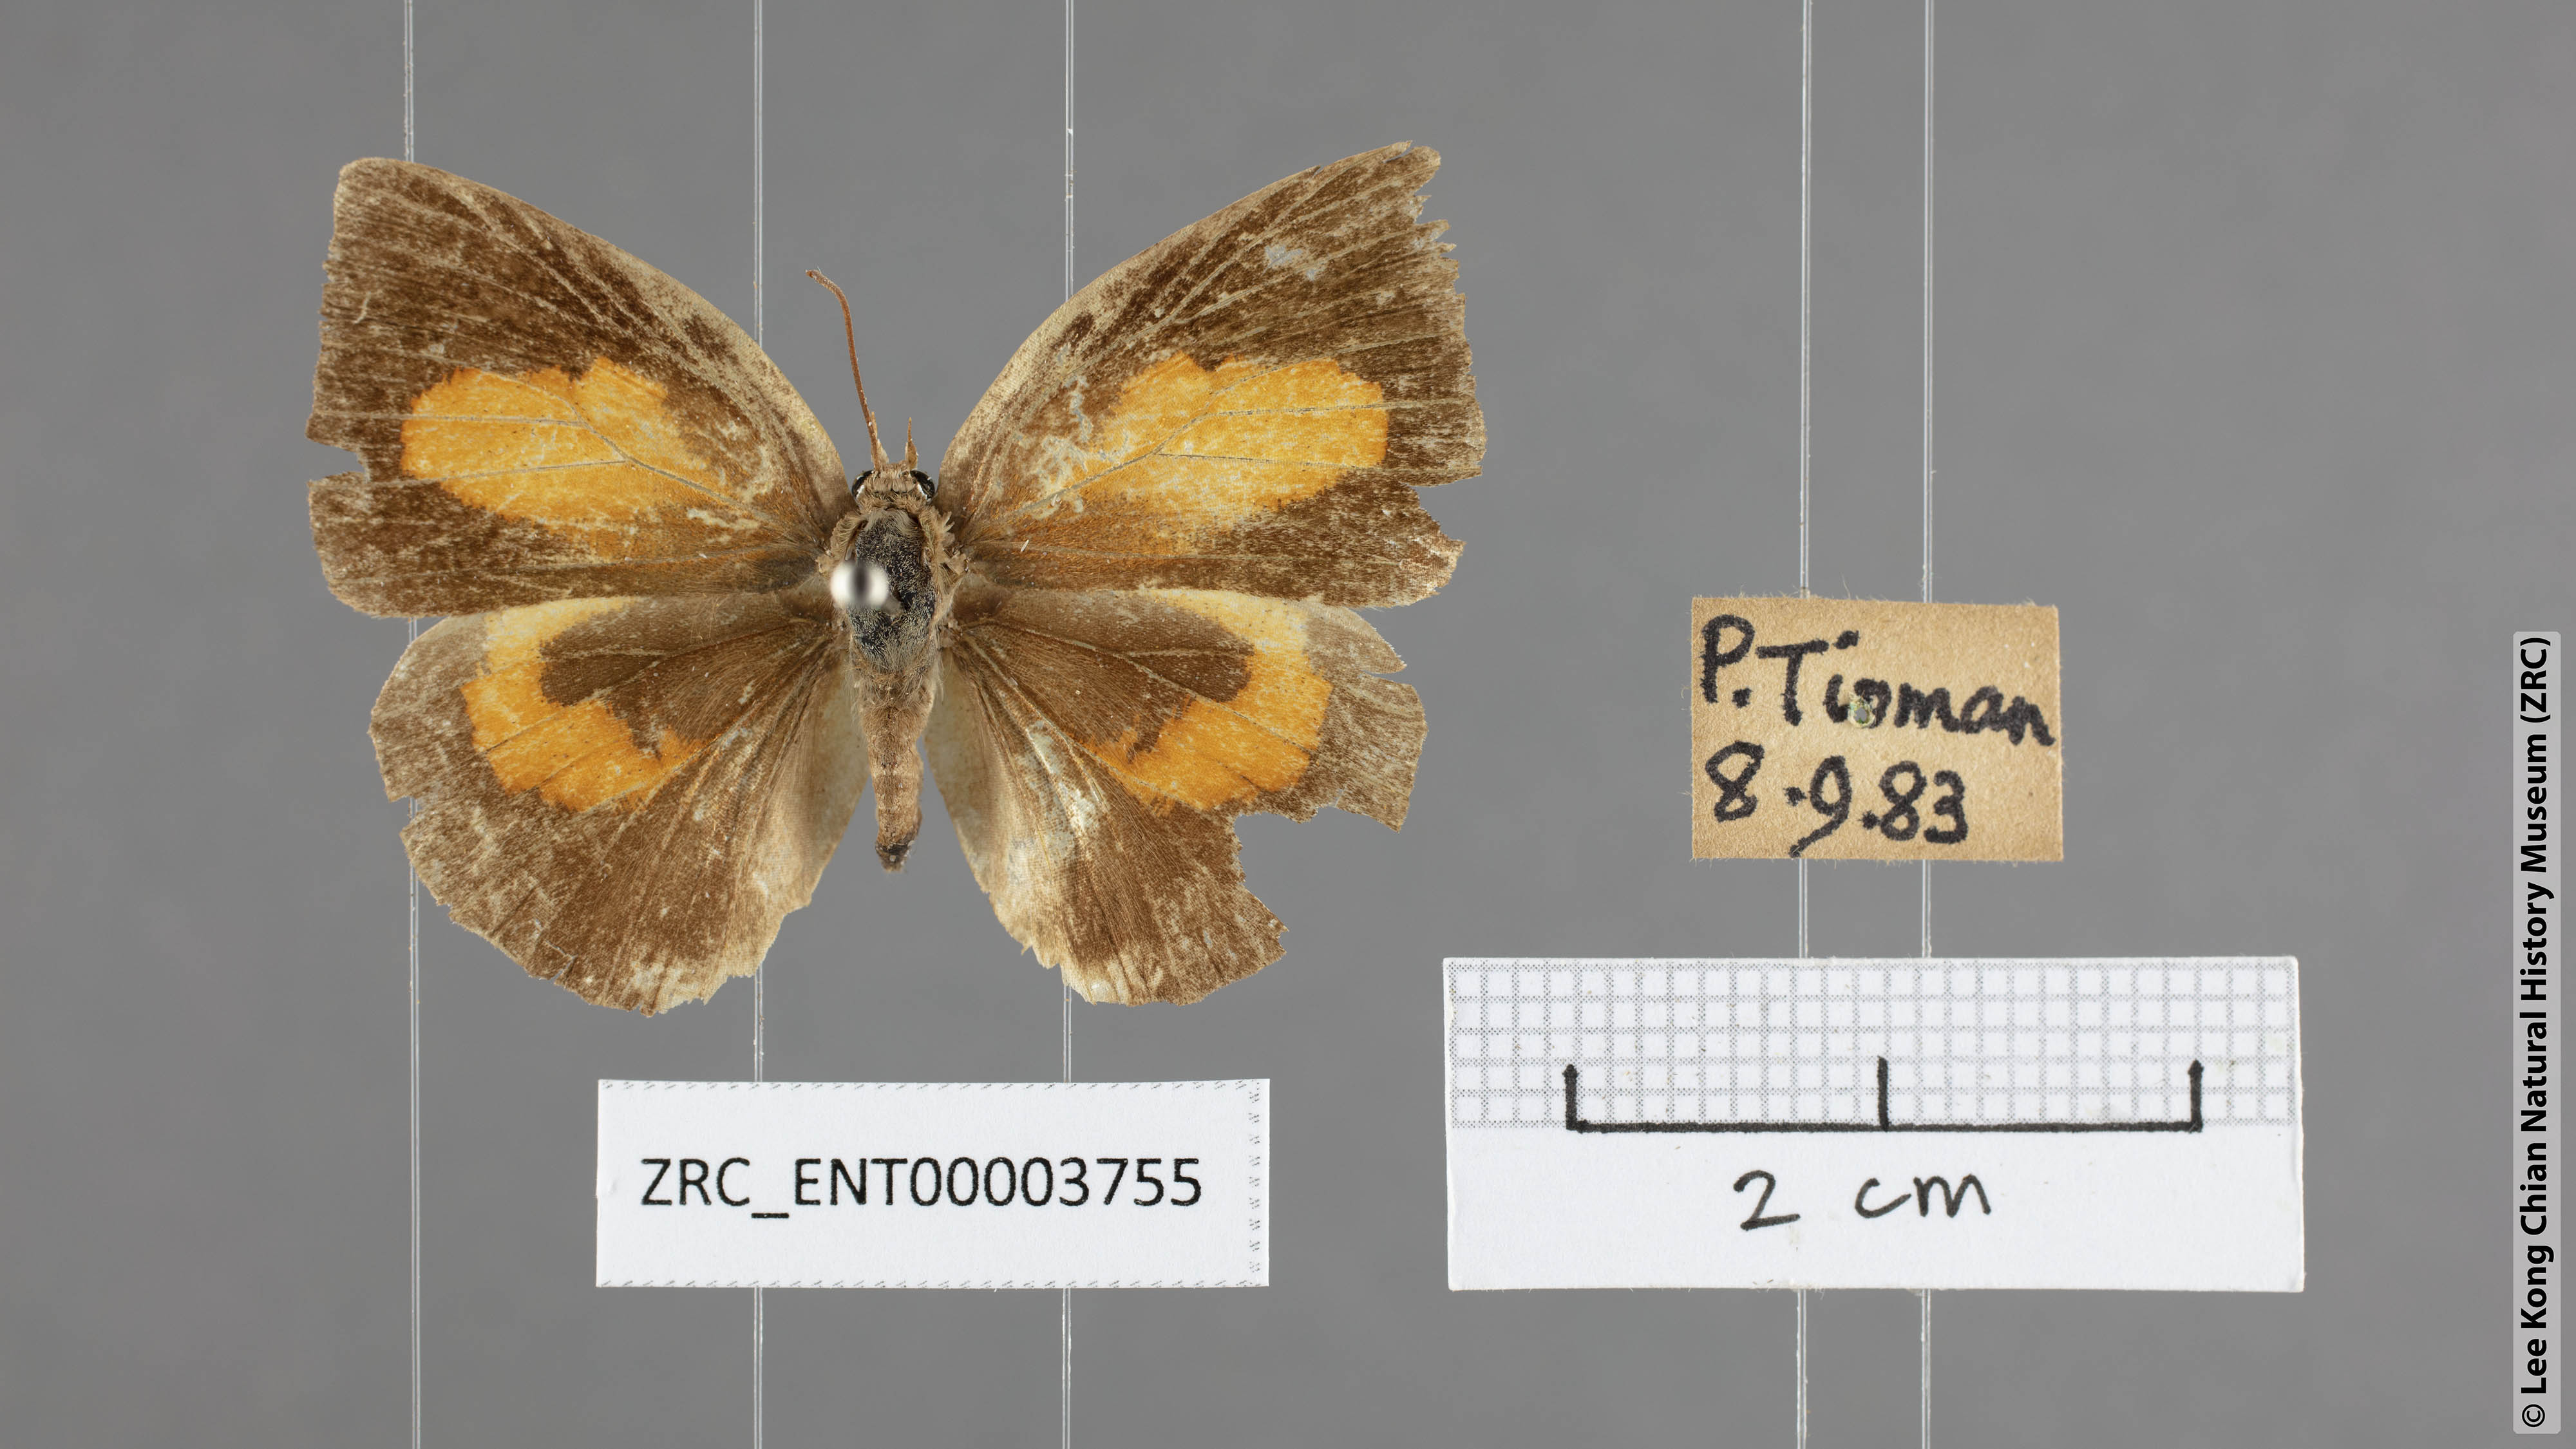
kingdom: Animalia
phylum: Arthropoda
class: Insecta
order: Lepidoptera
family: Lycaenidae
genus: Curetis
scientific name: Curetis sperthis
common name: Rounded sunbeam
